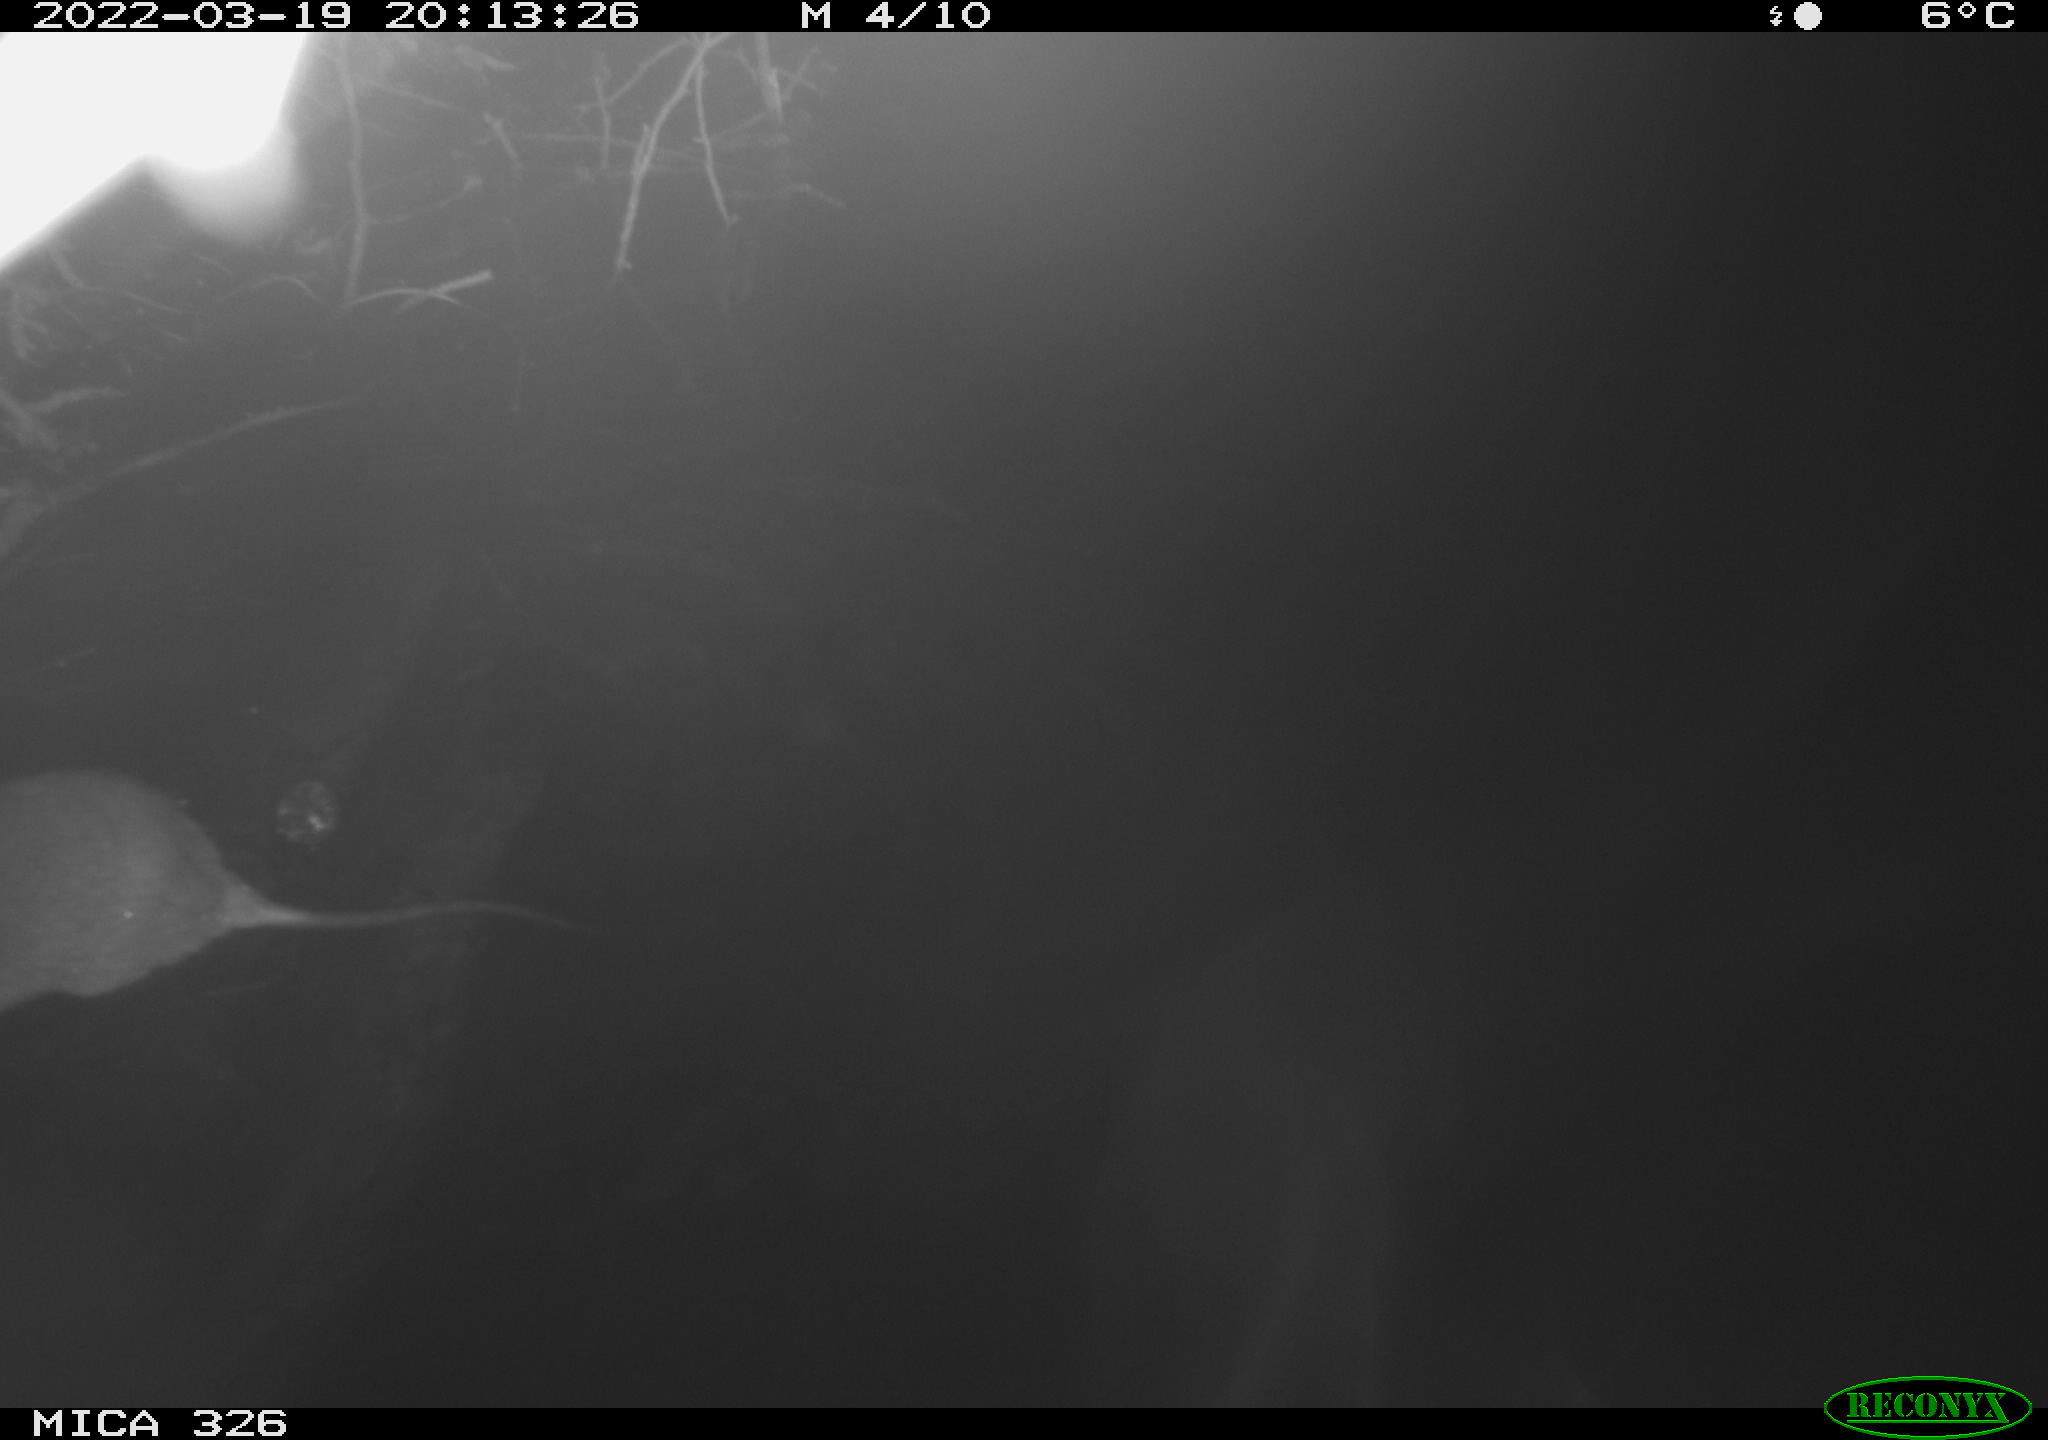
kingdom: Animalia
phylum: Chordata
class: Mammalia
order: Rodentia
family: Muridae
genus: Rattus
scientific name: Rattus norvegicus
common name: Brown rat
